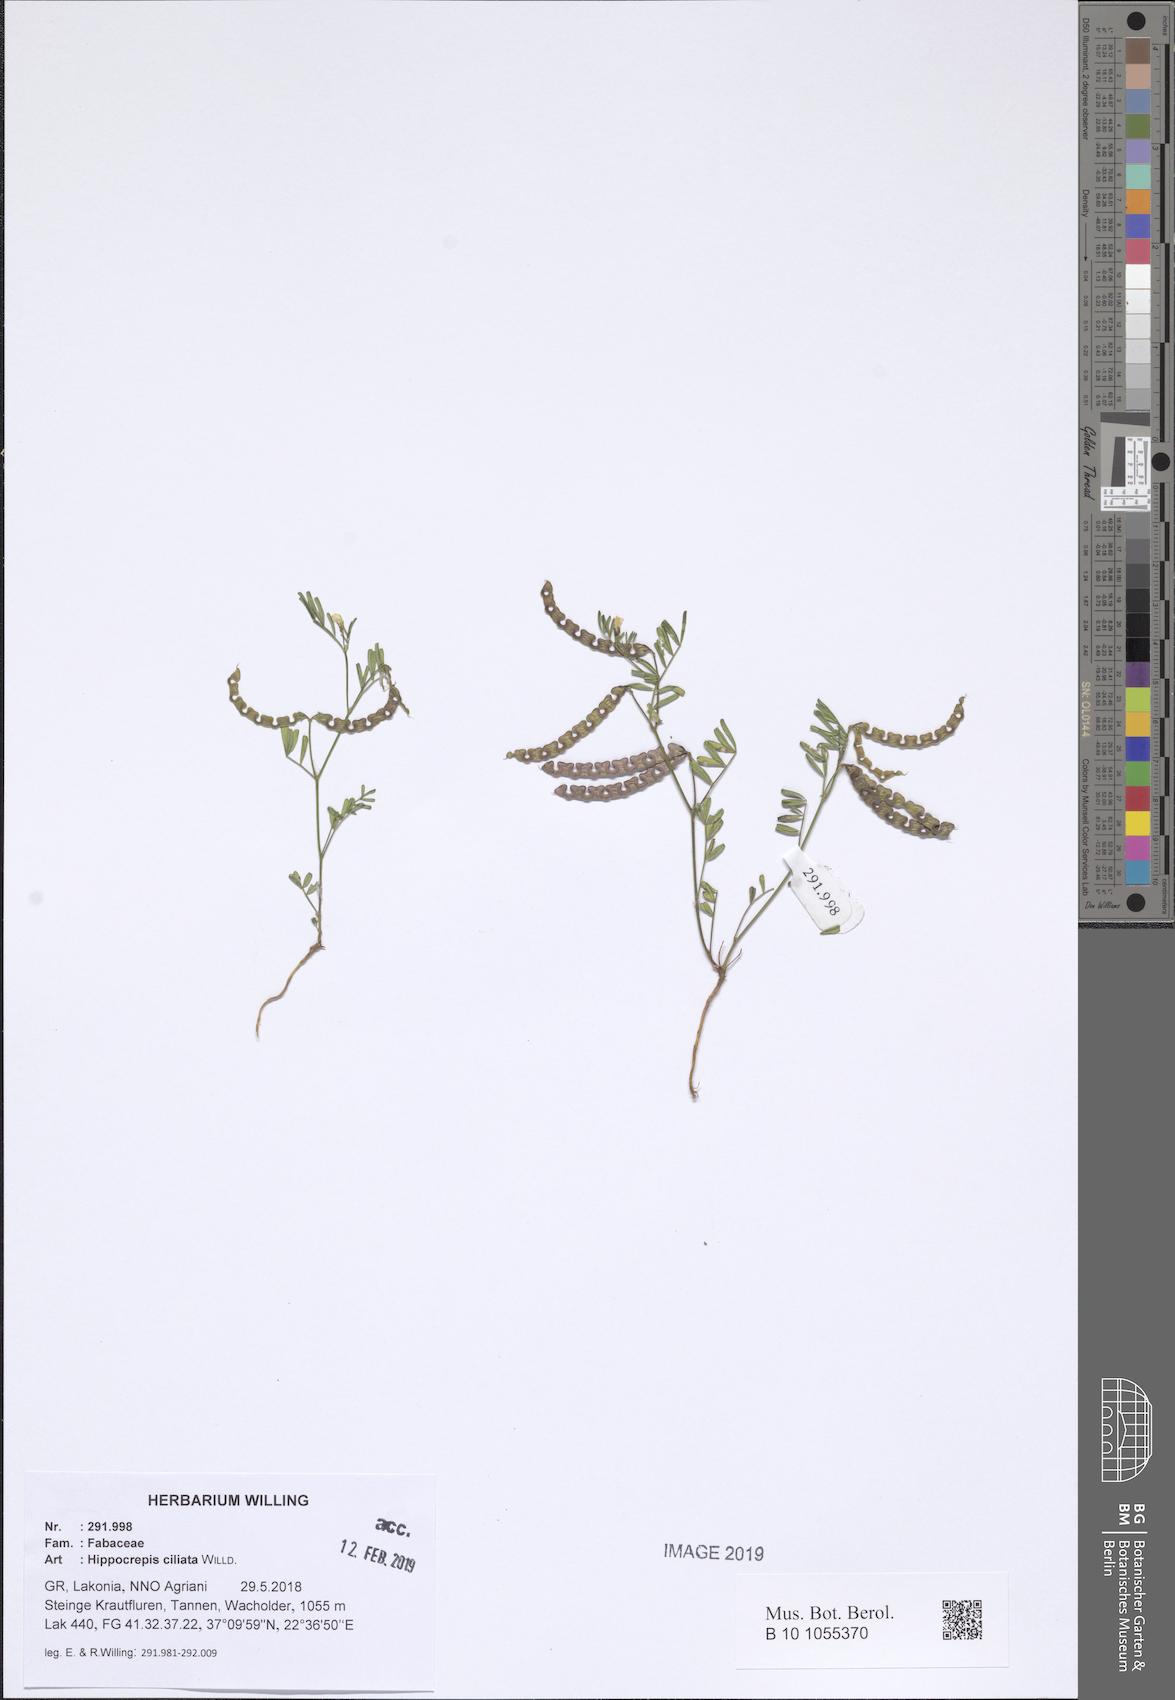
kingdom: Plantae
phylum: Tracheophyta
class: Magnoliopsida
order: Fabales
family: Fabaceae
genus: Hippocrepis
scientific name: Hippocrepis ciliata
